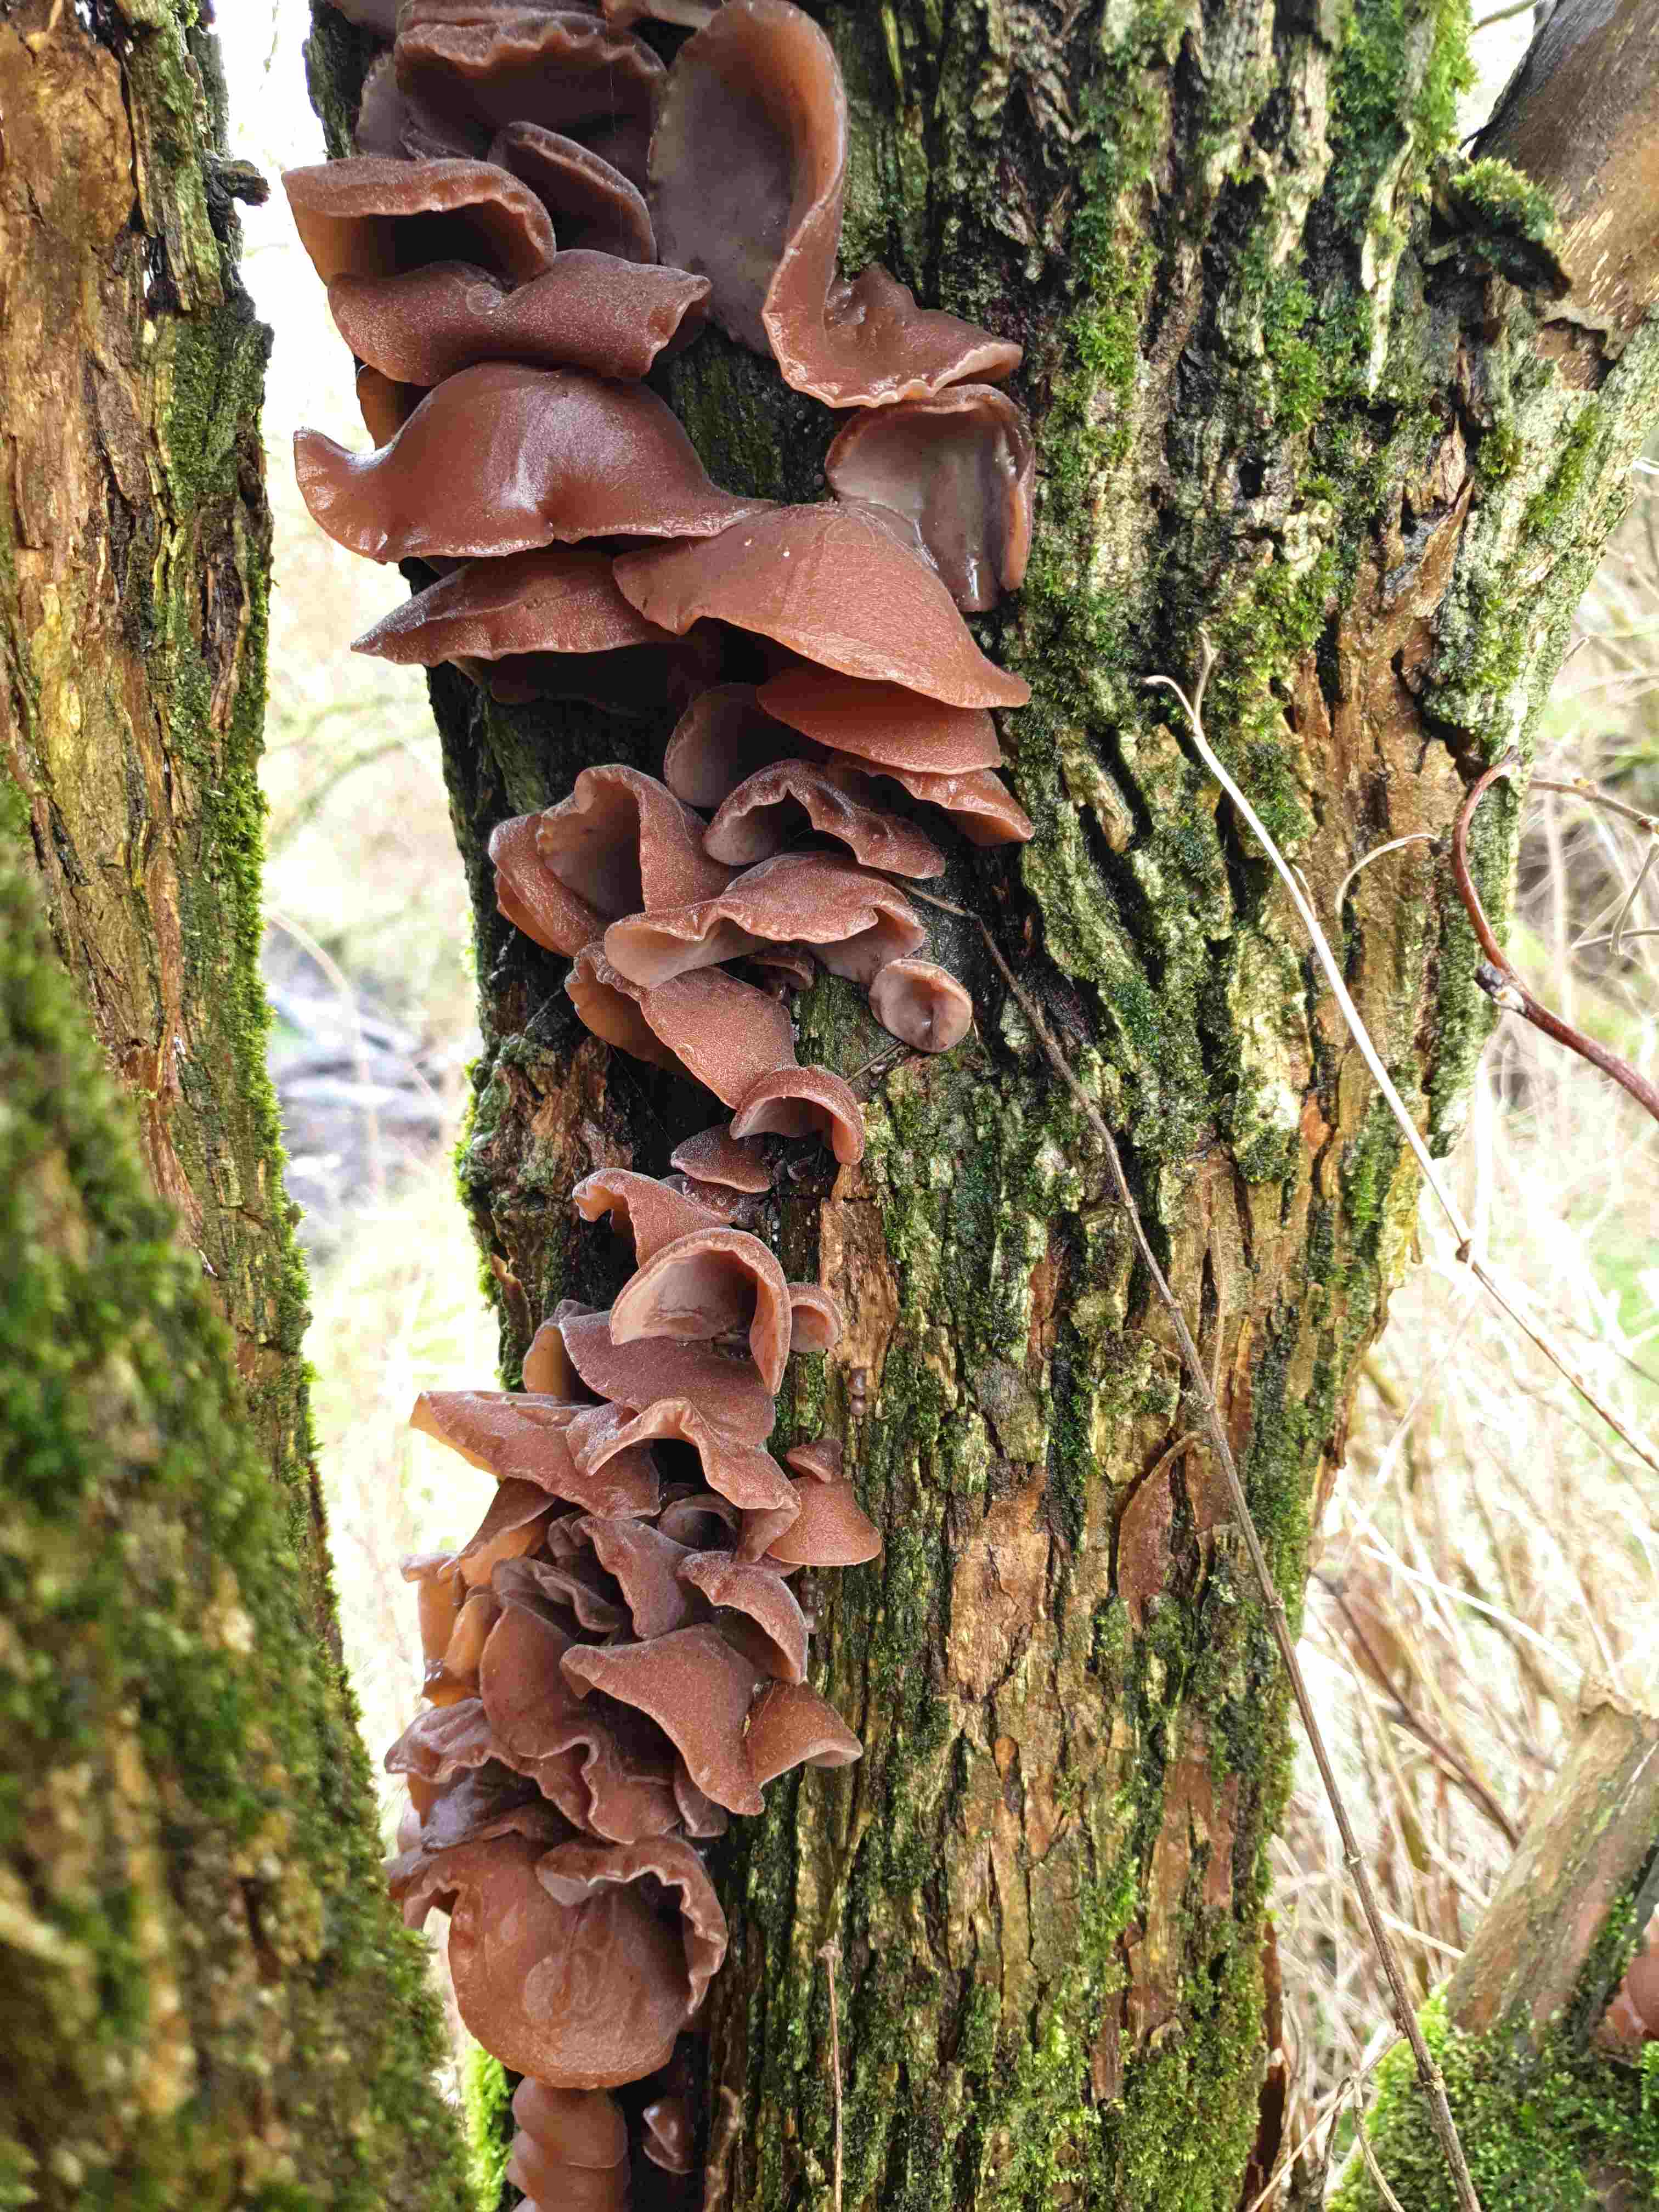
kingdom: Fungi
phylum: Basidiomycota
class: Agaricomycetes
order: Auriculariales
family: Auriculariaceae
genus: Auricularia
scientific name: Auricularia auricula-judae
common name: almindelig judasøre
